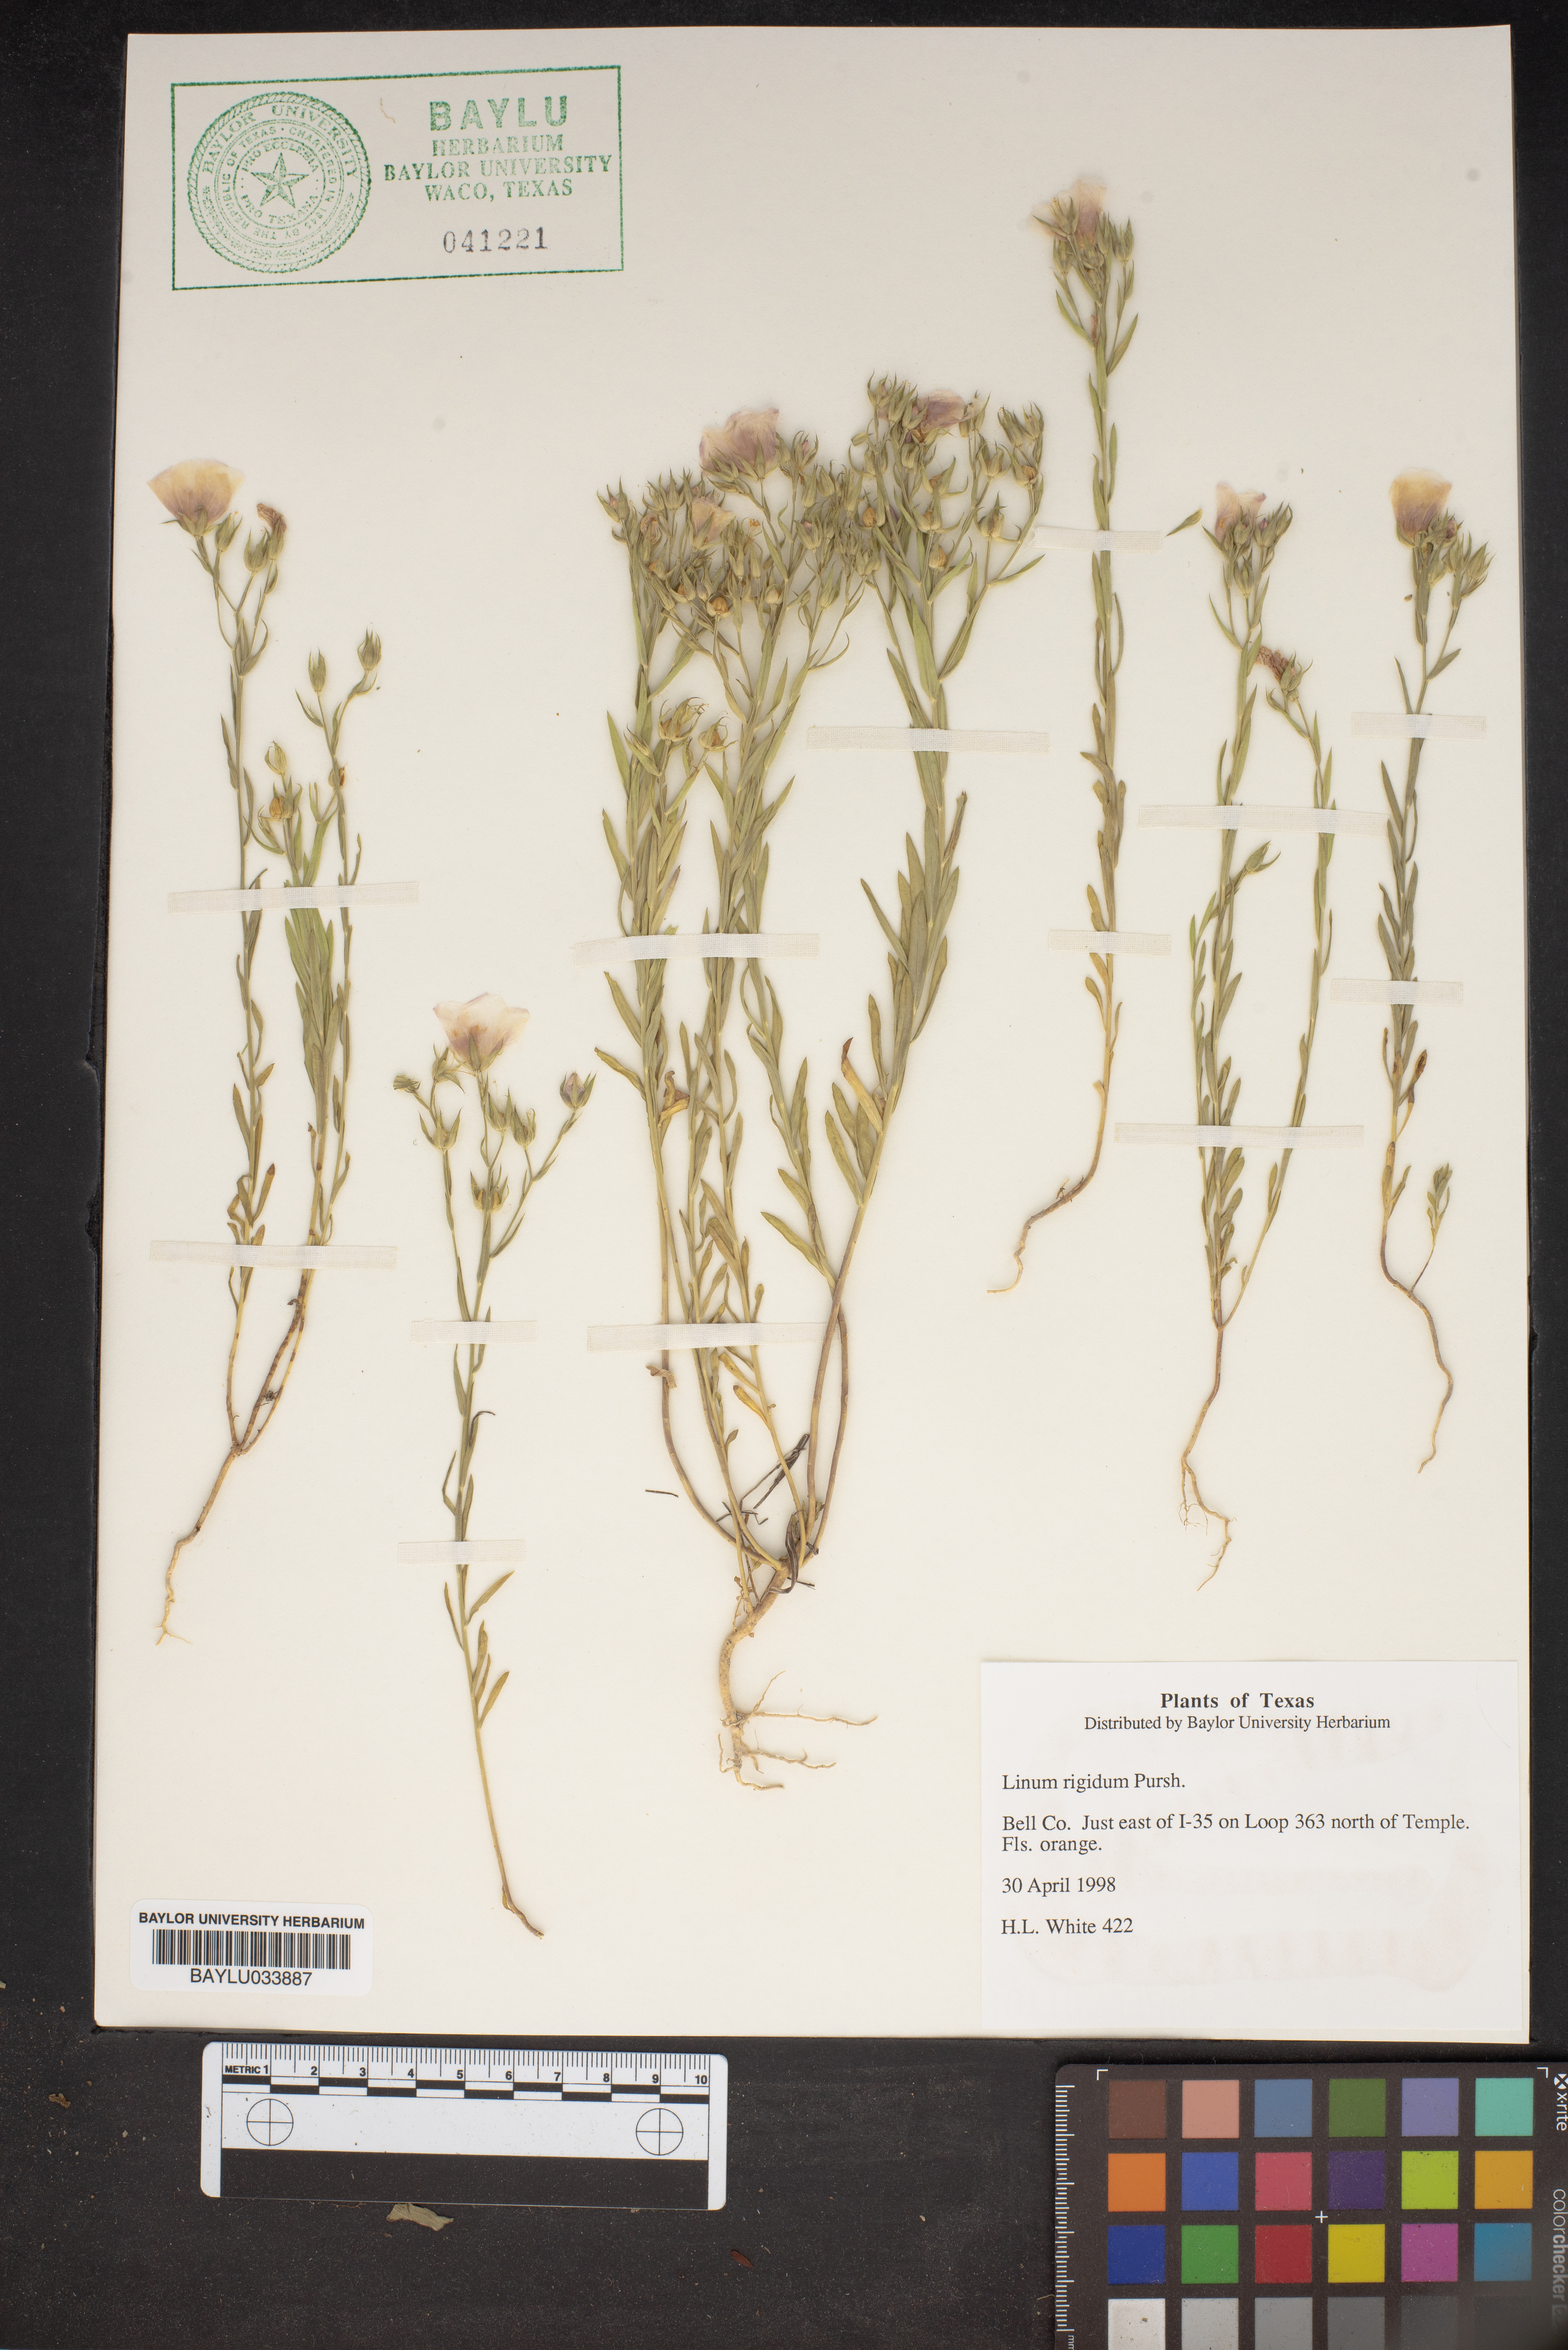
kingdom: Plantae
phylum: Tracheophyta
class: Magnoliopsida
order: Malpighiales
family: Linaceae
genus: Linum
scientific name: Linum rigidum
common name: Stiff-stem flax
